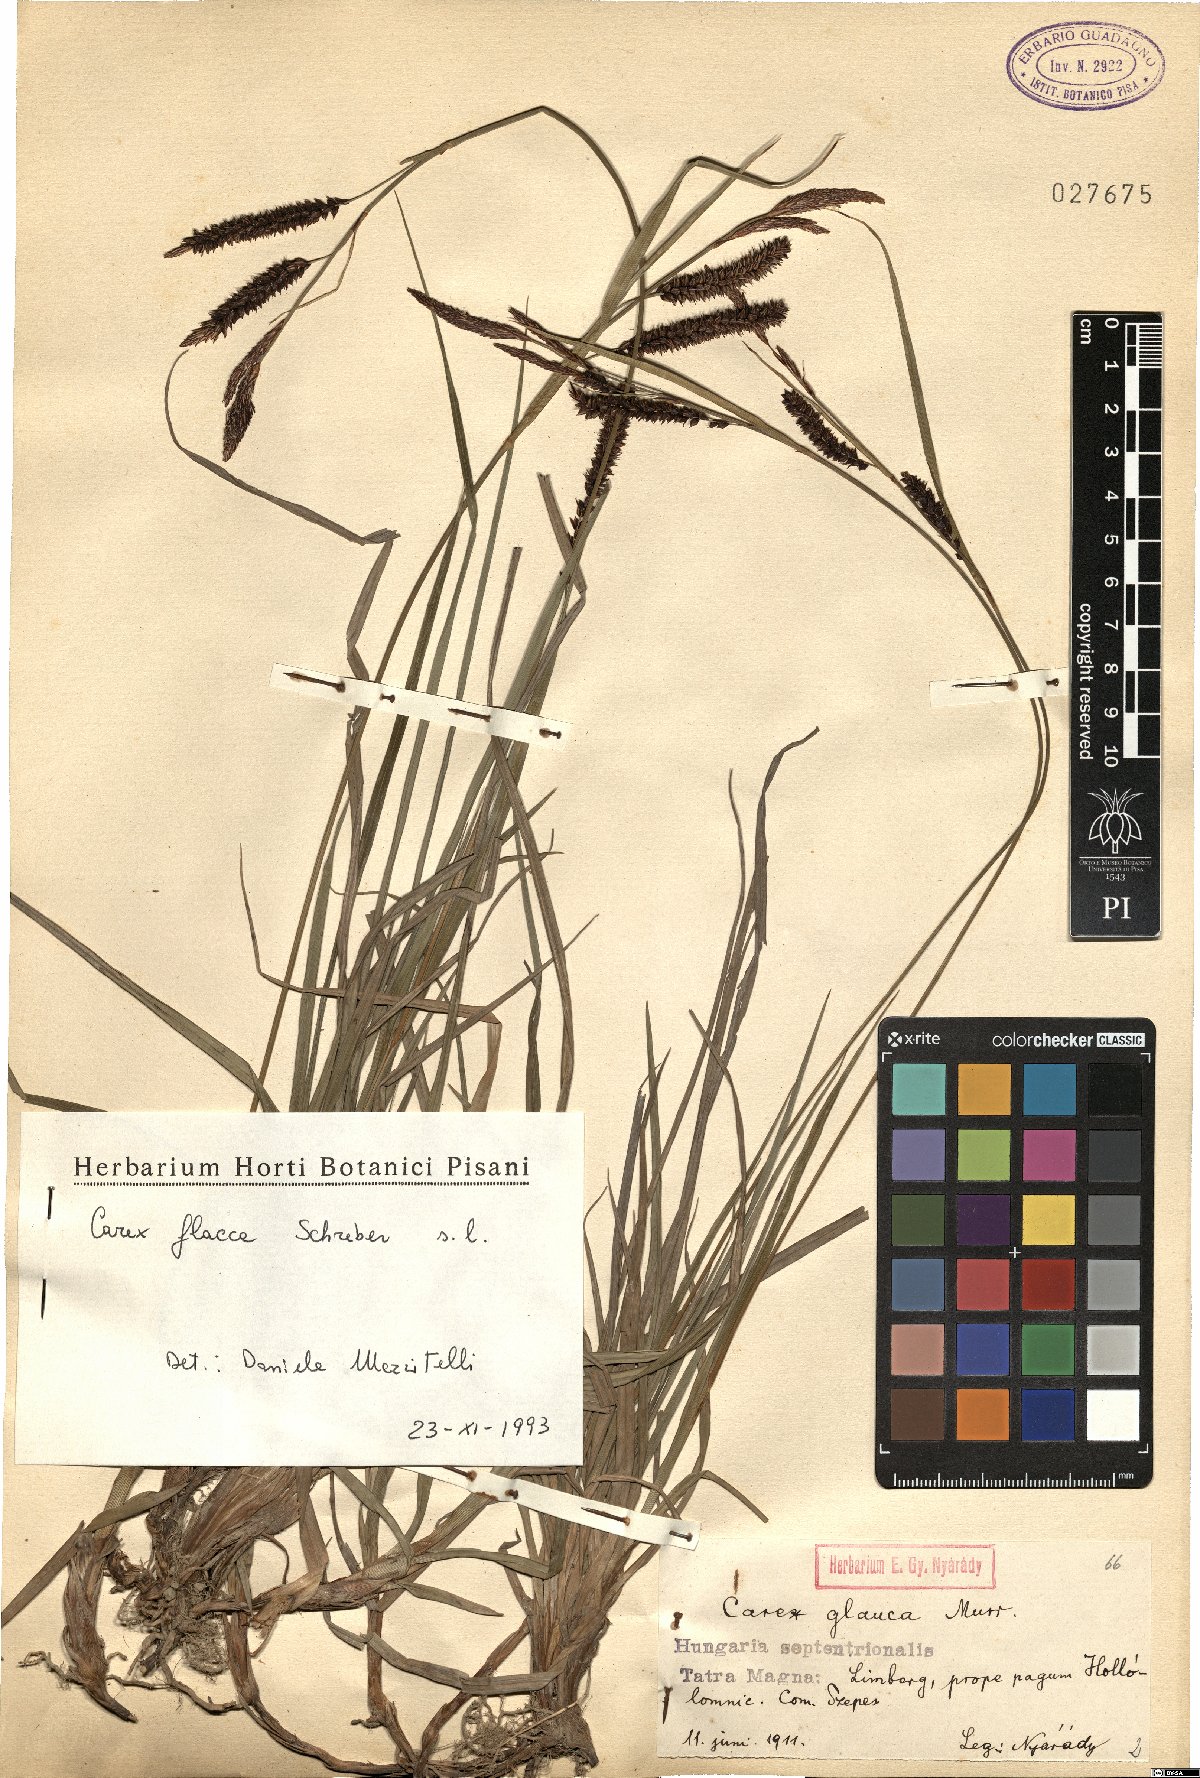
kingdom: Plantae
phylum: Tracheophyta
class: Liliopsida
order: Poales
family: Cyperaceae
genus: Carex
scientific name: Carex flacca
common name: Glaucous sedge
